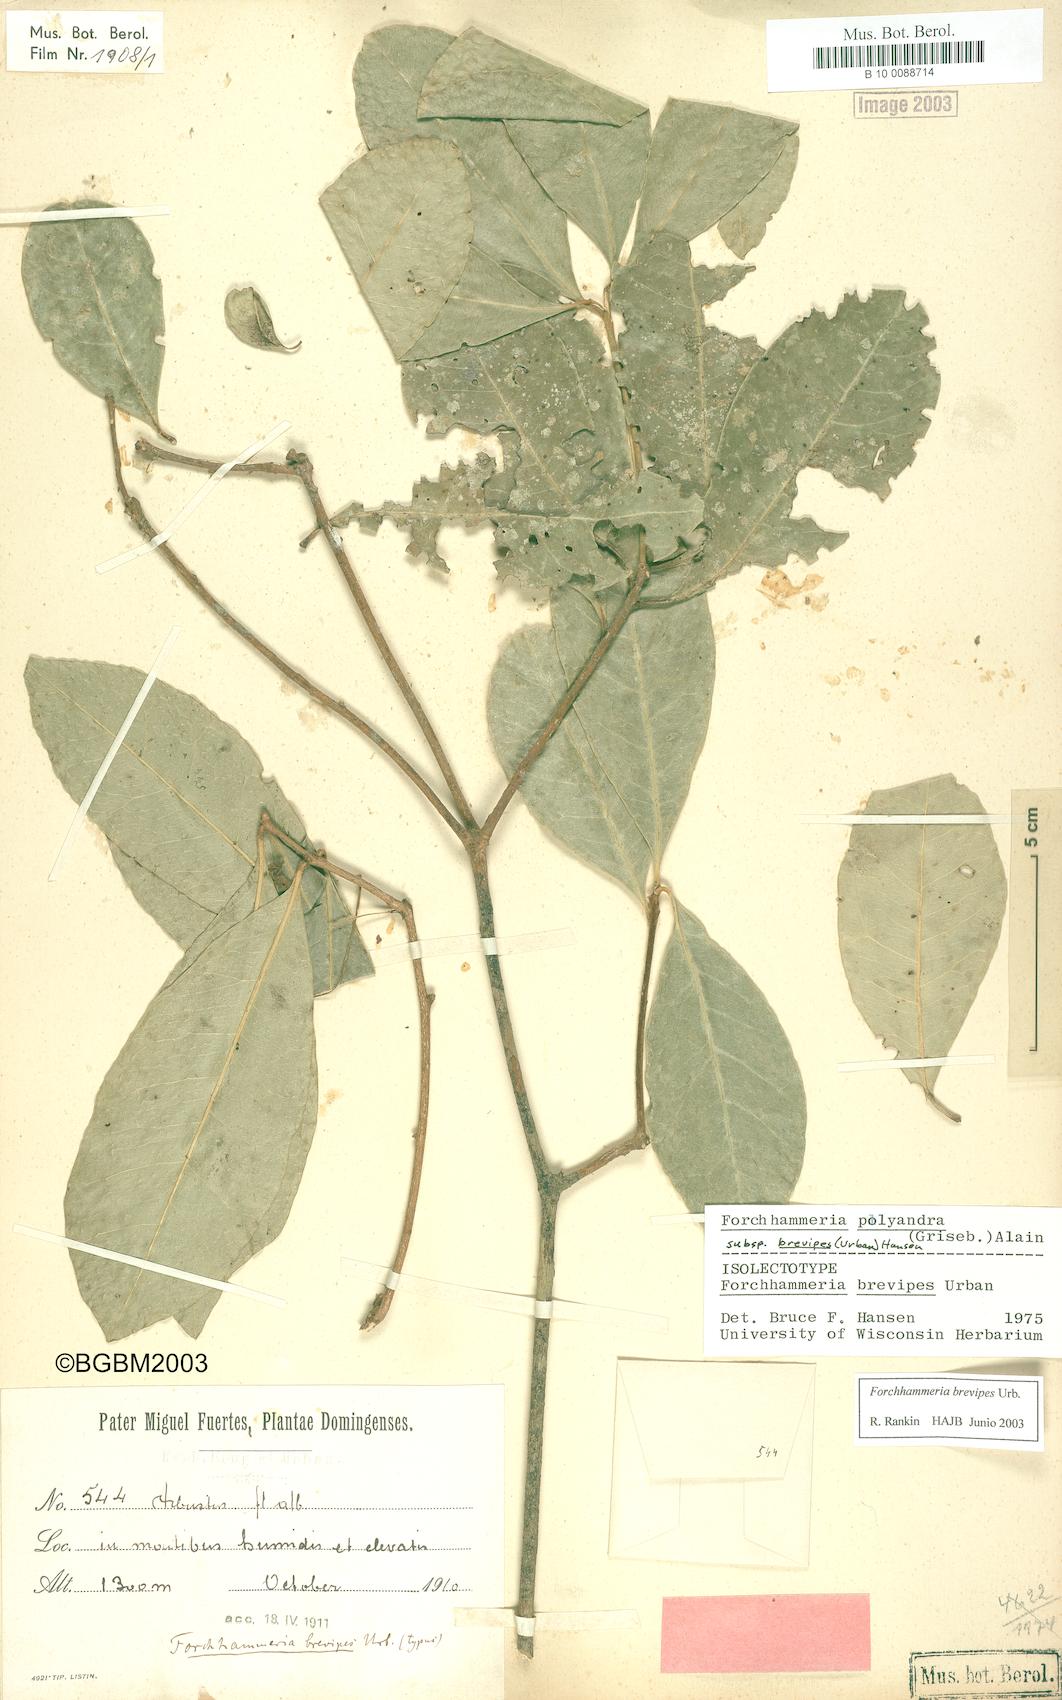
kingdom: Plantae
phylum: Tracheophyta
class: Magnoliopsida
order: Brassicales
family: Stixaceae
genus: Forchhammeria
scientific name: Forchhammeria brevipes
